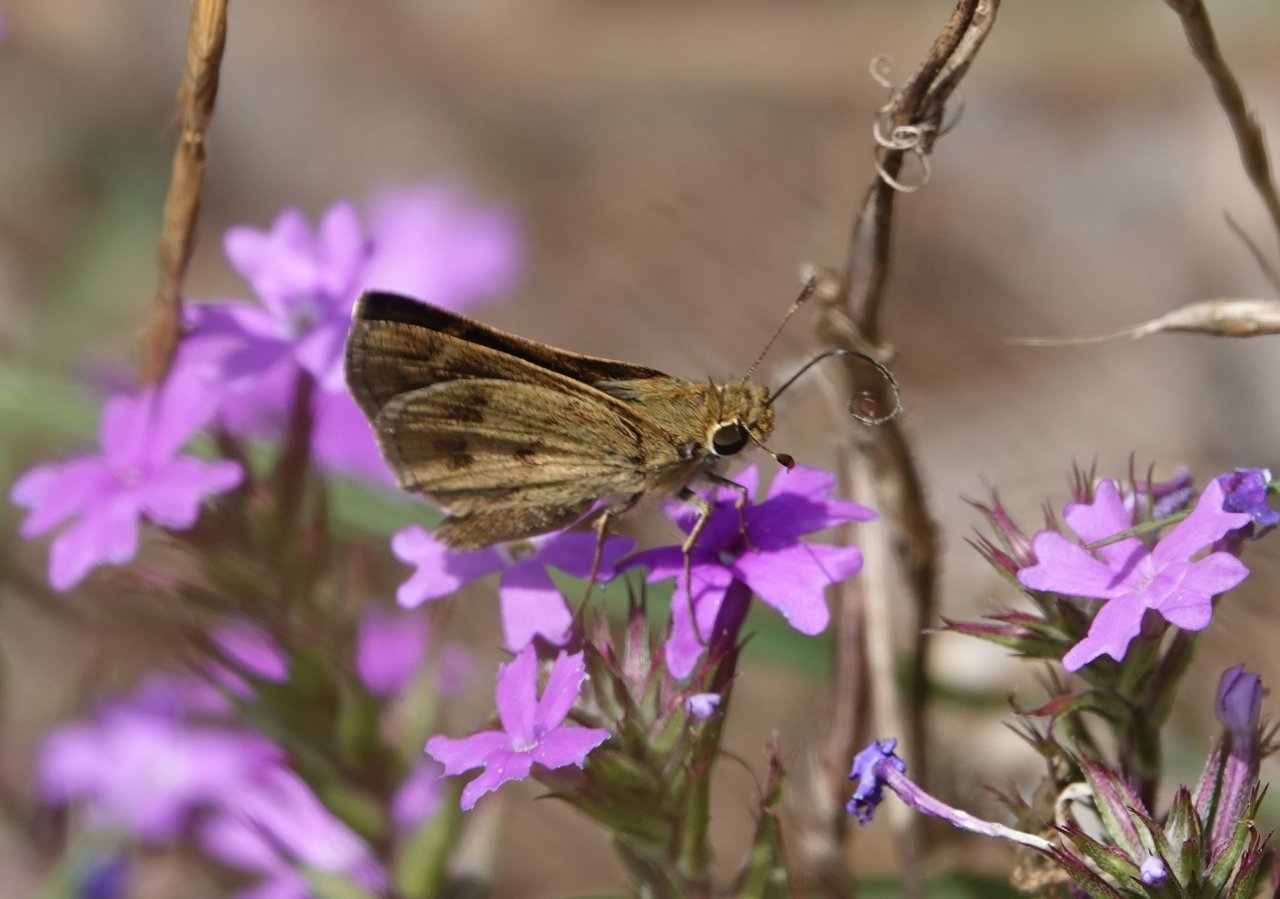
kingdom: Animalia
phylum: Arthropoda
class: Insecta
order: Lepidoptera
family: Hesperiidae
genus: Polites
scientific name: Polites vibex
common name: Whirlabout
